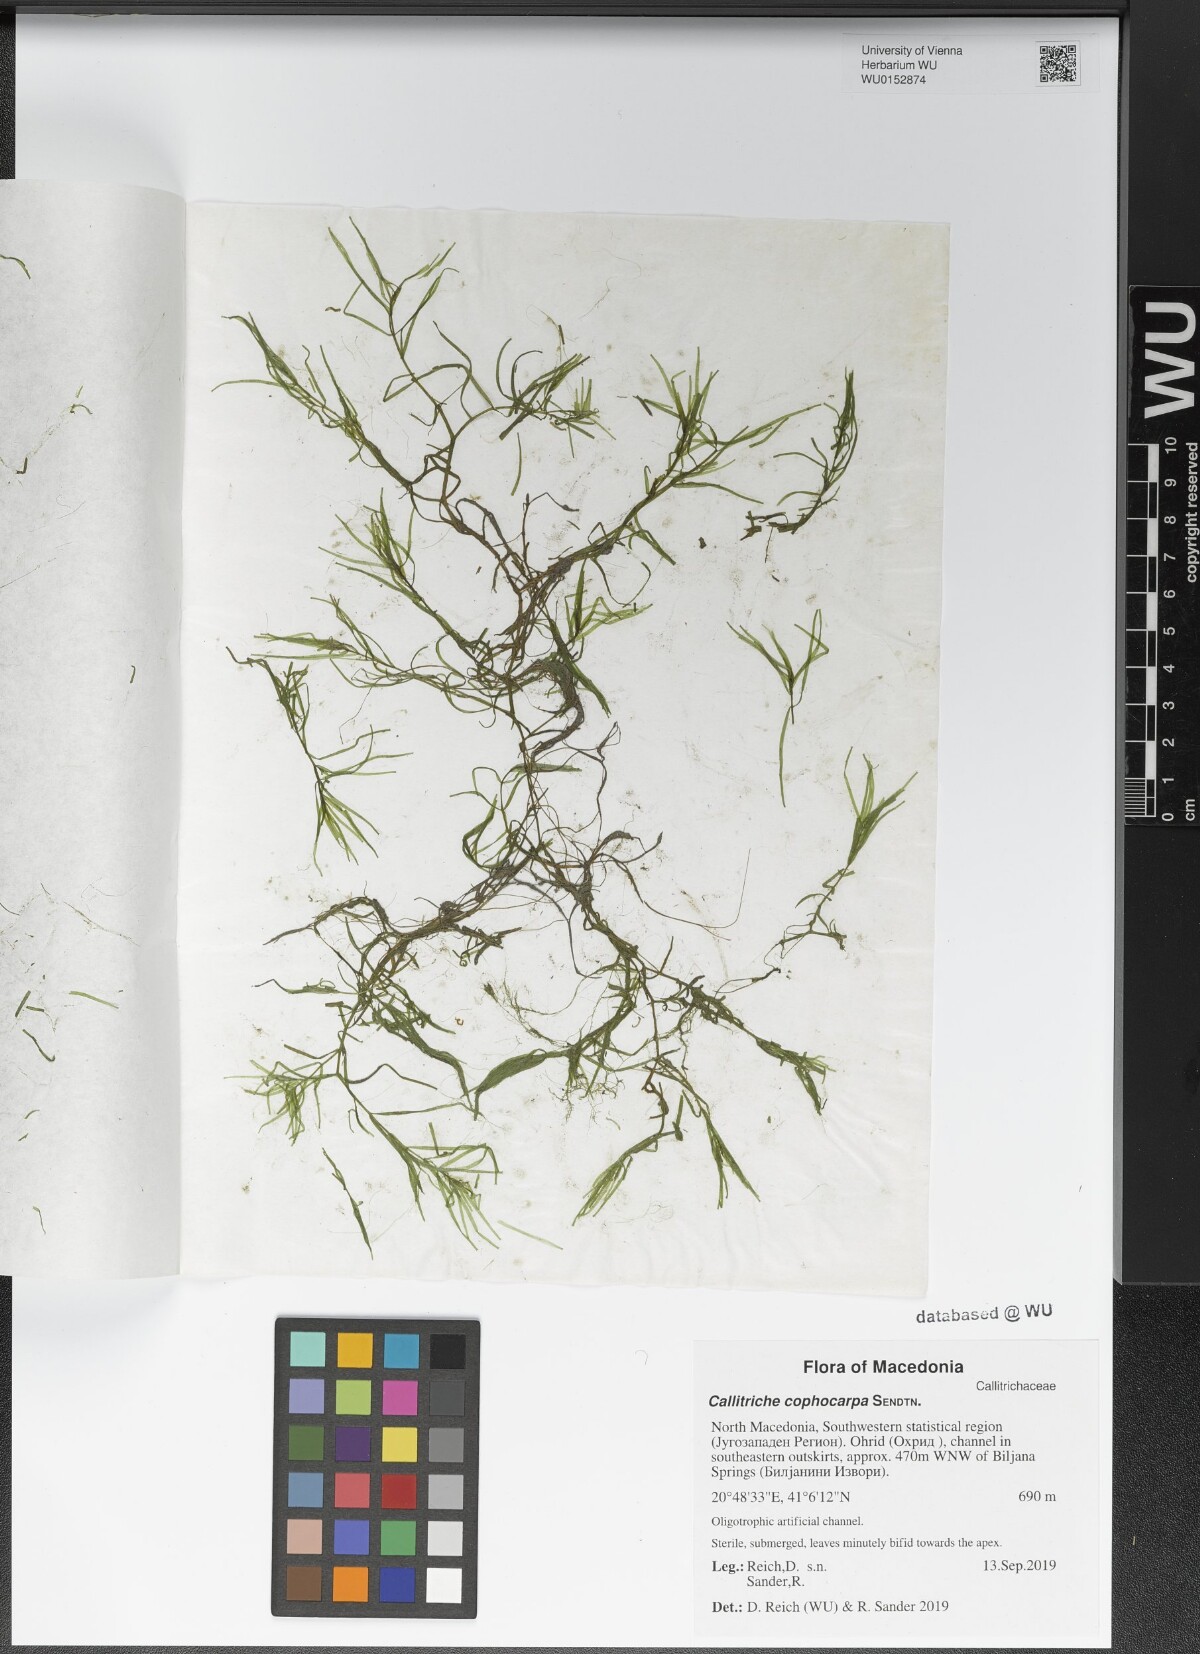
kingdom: Plantae
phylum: Tracheophyta
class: Magnoliopsida
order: Lamiales
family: Plantaginaceae
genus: Callitriche
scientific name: Callitriche cophocarpa
